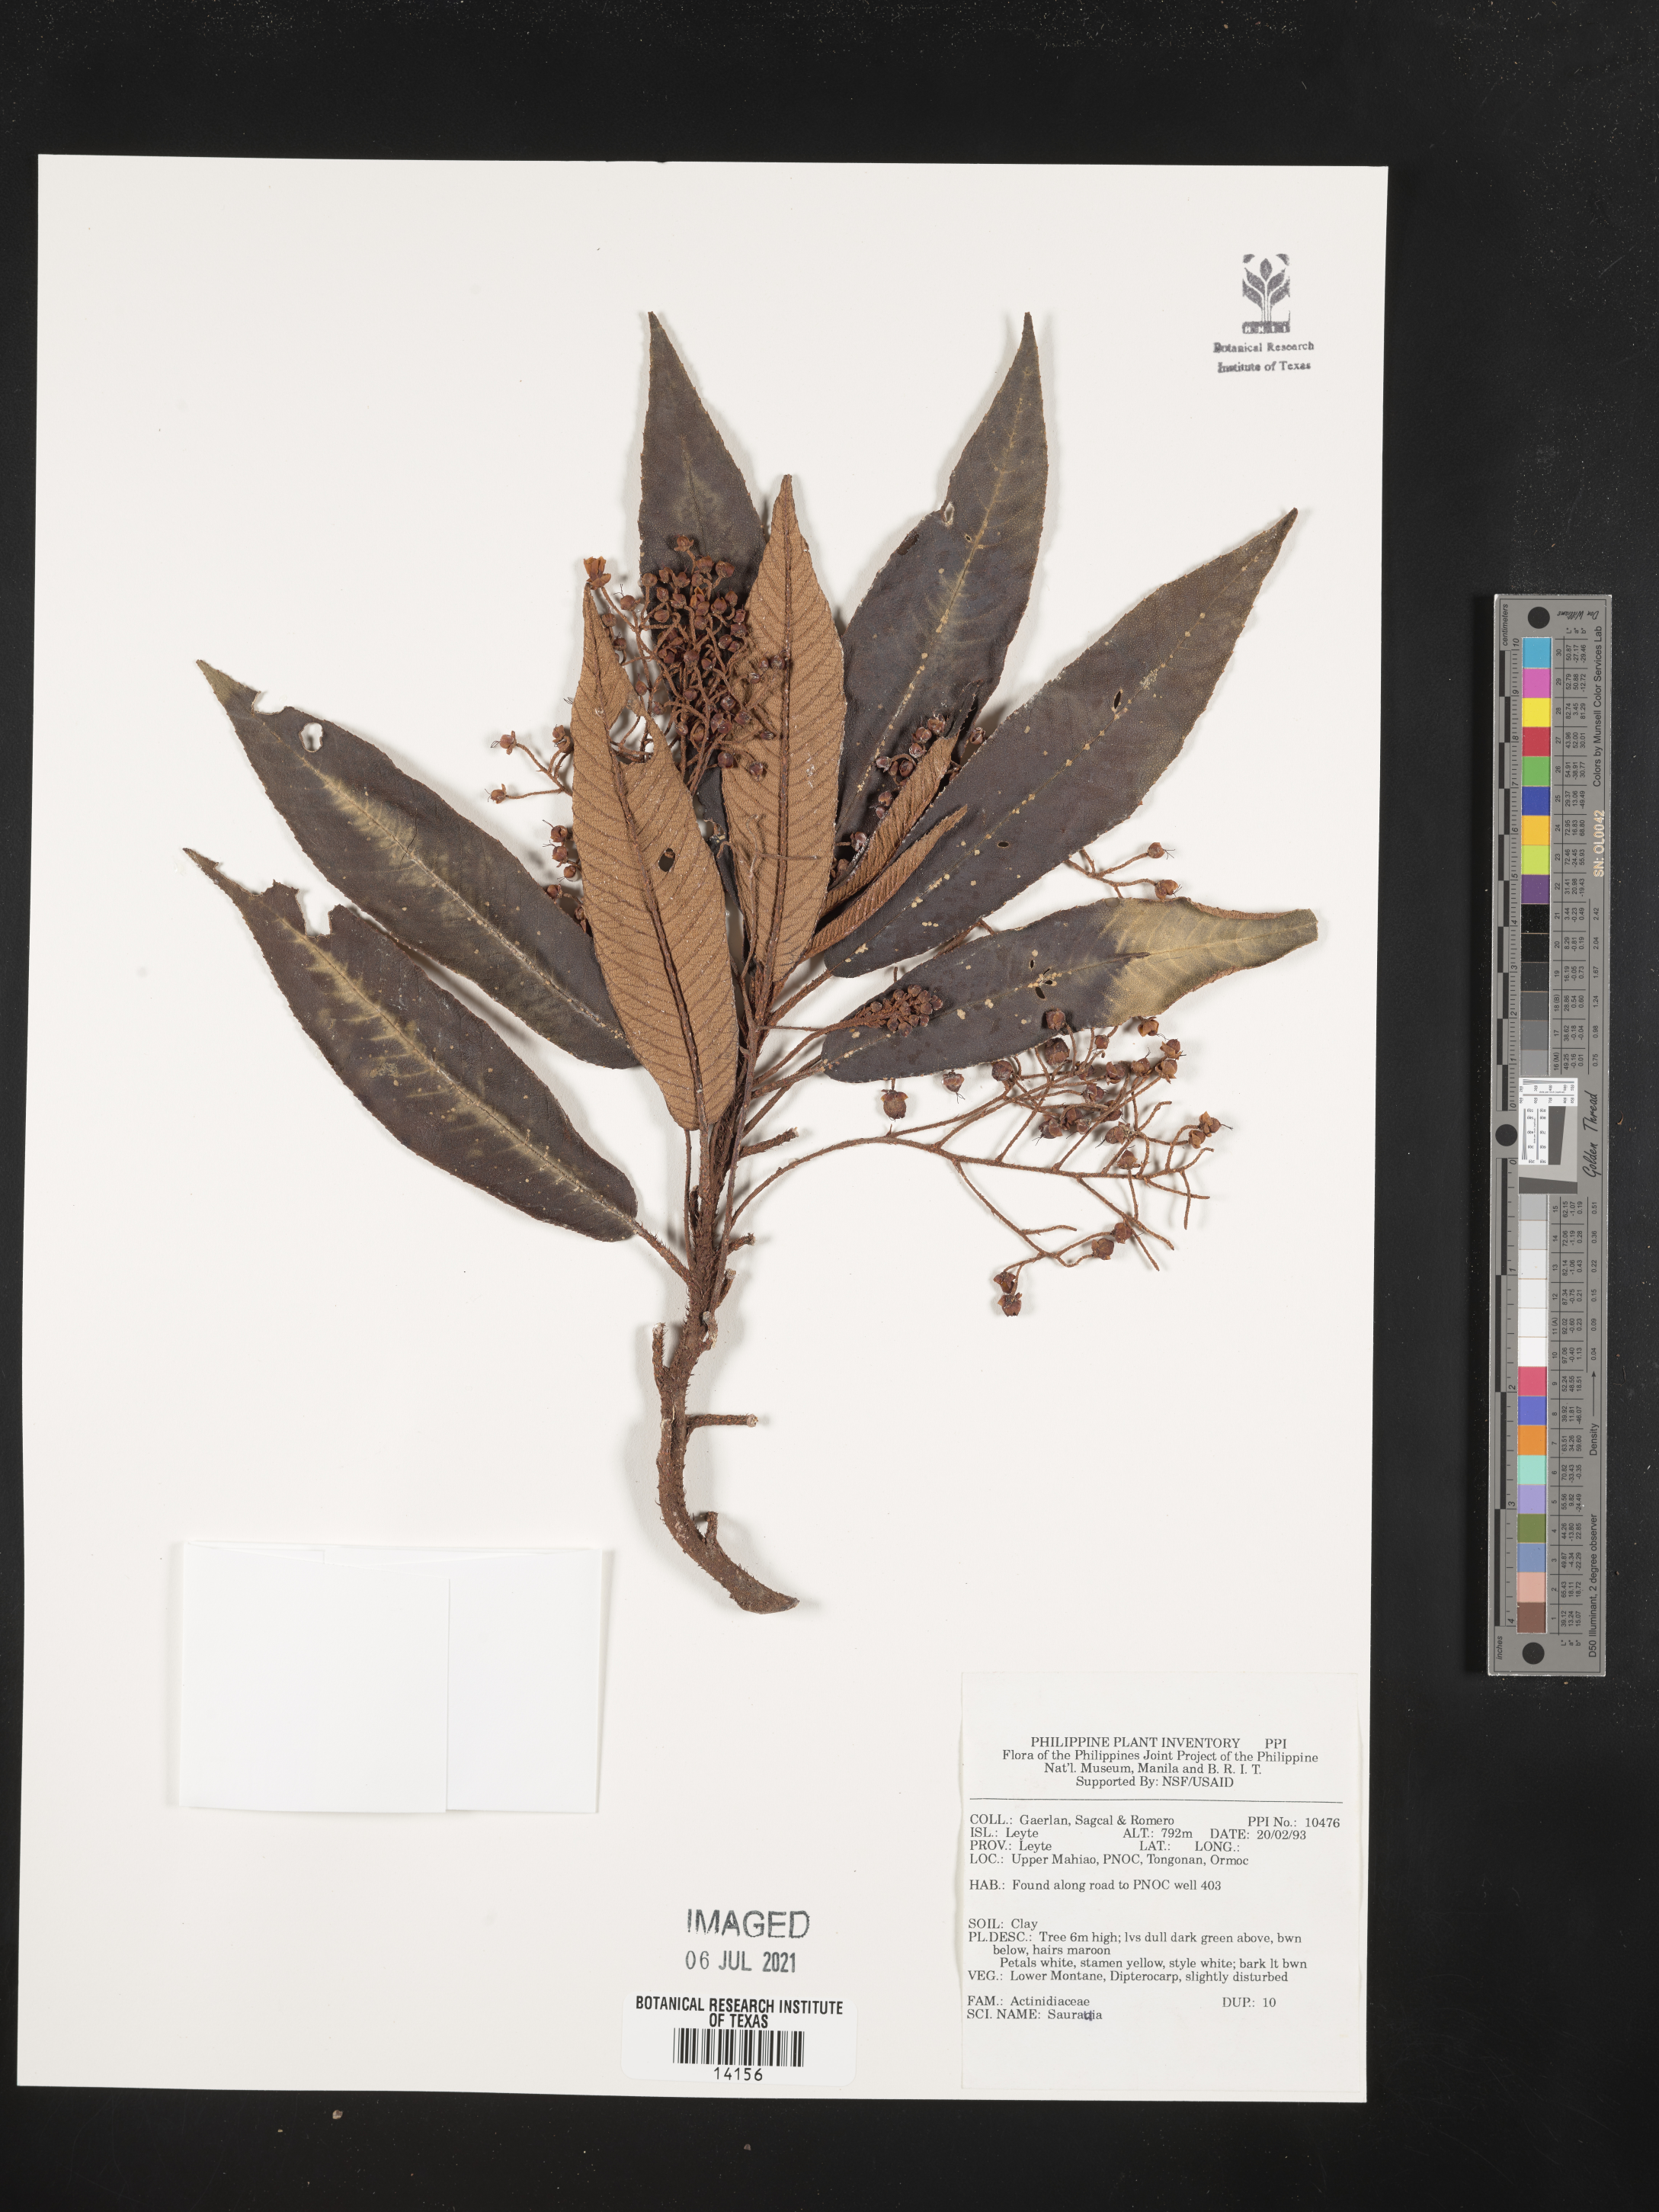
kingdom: Plantae
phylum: Tracheophyta
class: Magnoliopsida
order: Ericales
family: Actinidiaceae
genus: Saurauia
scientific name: Saurauia
